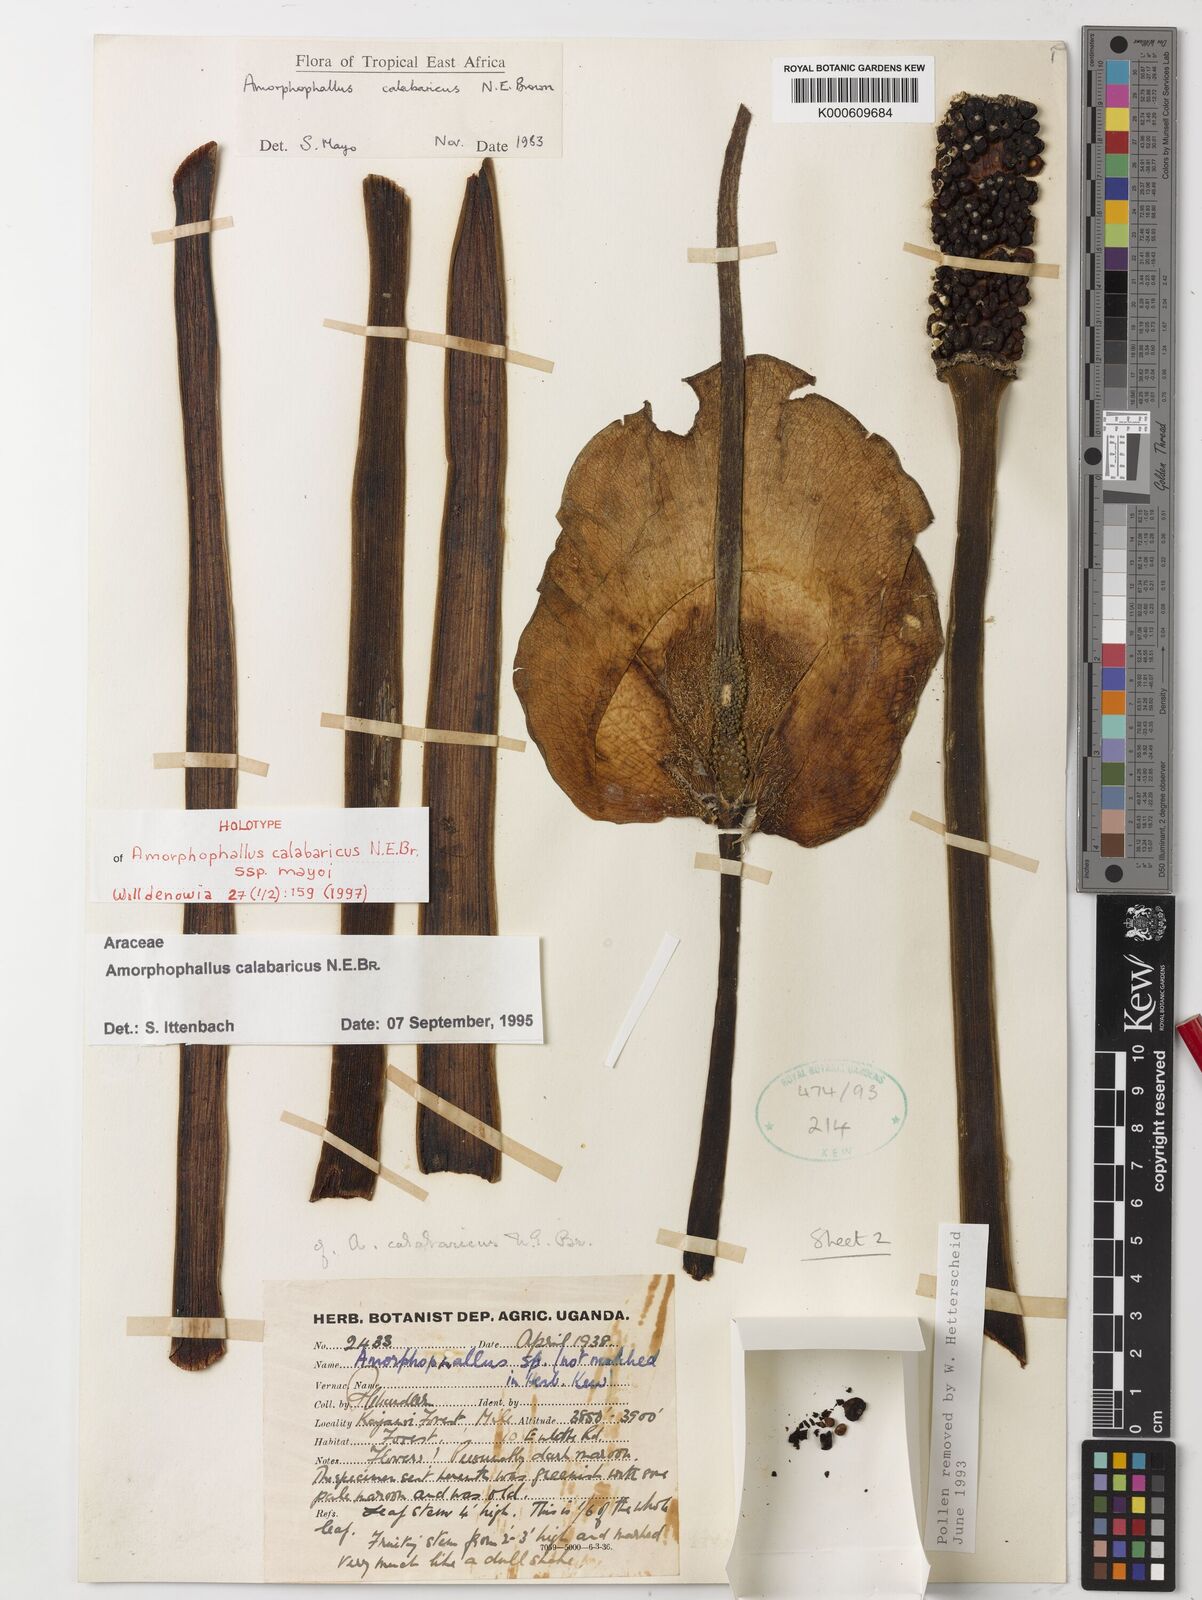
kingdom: Plantae
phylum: Tracheophyta
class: Liliopsida
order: Alismatales
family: Araceae
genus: Amorphophallus
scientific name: Amorphophallus calabaricus
